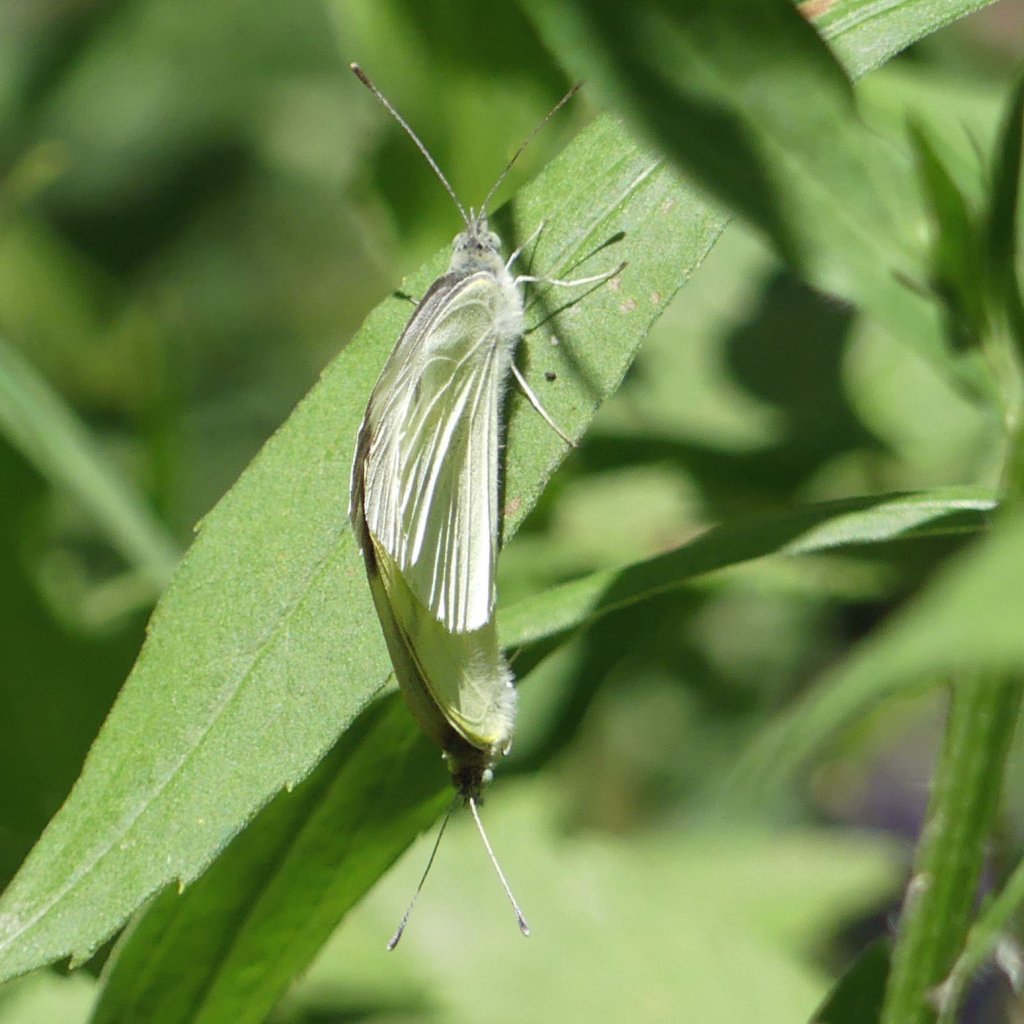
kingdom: Animalia
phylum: Arthropoda
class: Insecta
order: Lepidoptera
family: Pieridae
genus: Pieris
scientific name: Pieris rapae
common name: Cabbage White
